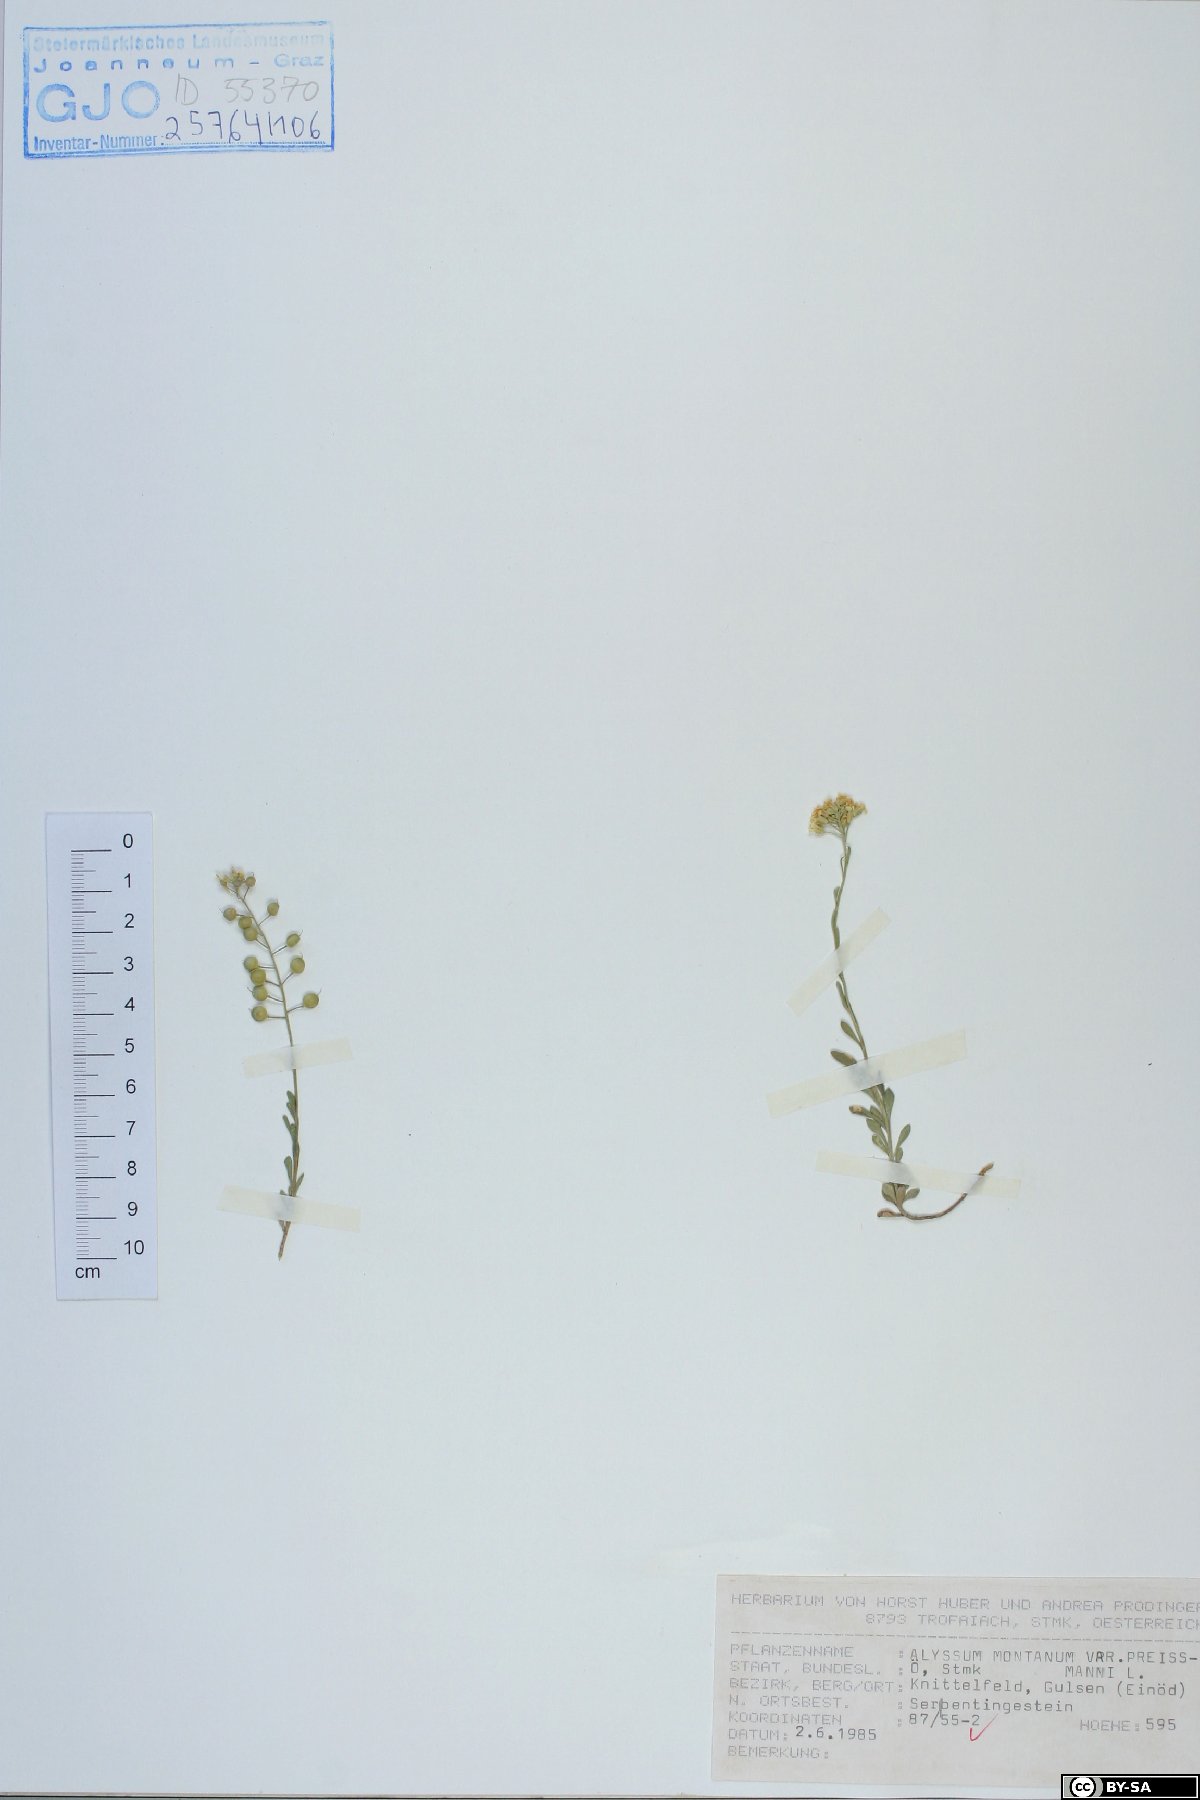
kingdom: Plantae
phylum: Tracheophyta
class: Magnoliopsida
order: Brassicales
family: Brassicaceae
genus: Alyssum
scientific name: Alyssum gmelinii
